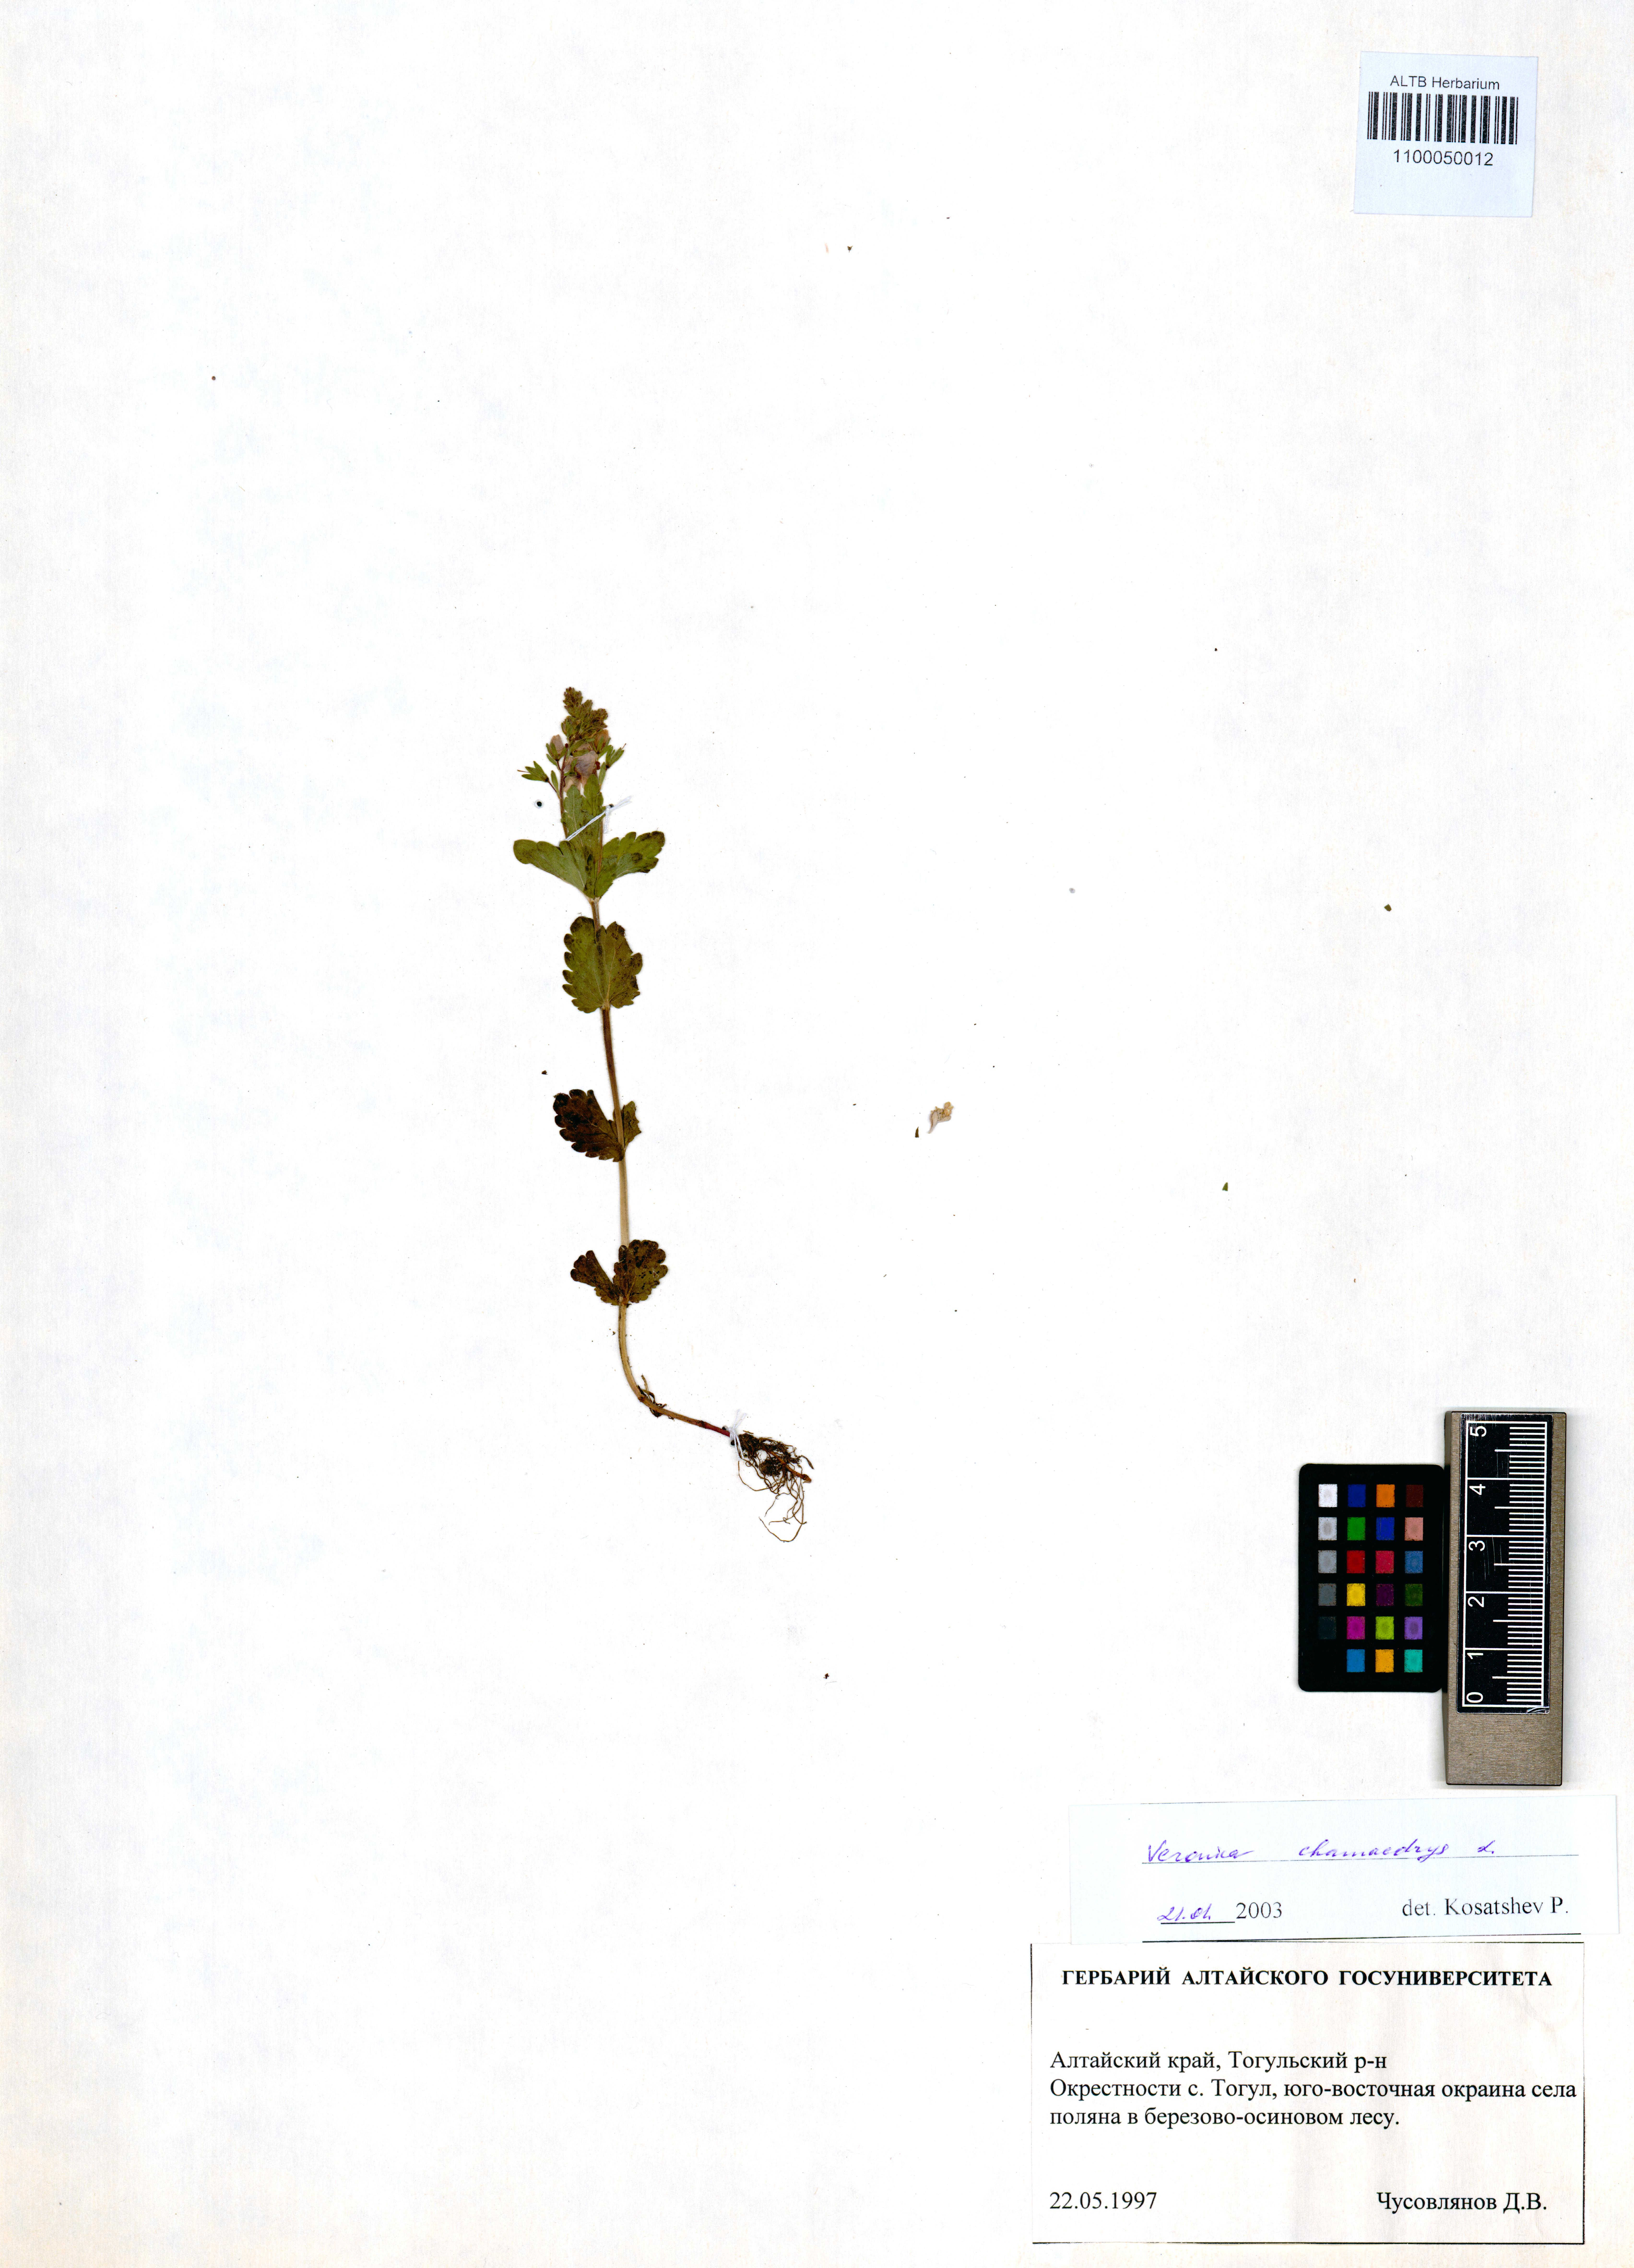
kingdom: Plantae
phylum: Tracheophyta
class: Magnoliopsida
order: Lamiales
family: Plantaginaceae
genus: Veronica
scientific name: Veronica chamaedrys
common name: Germander speedwell
